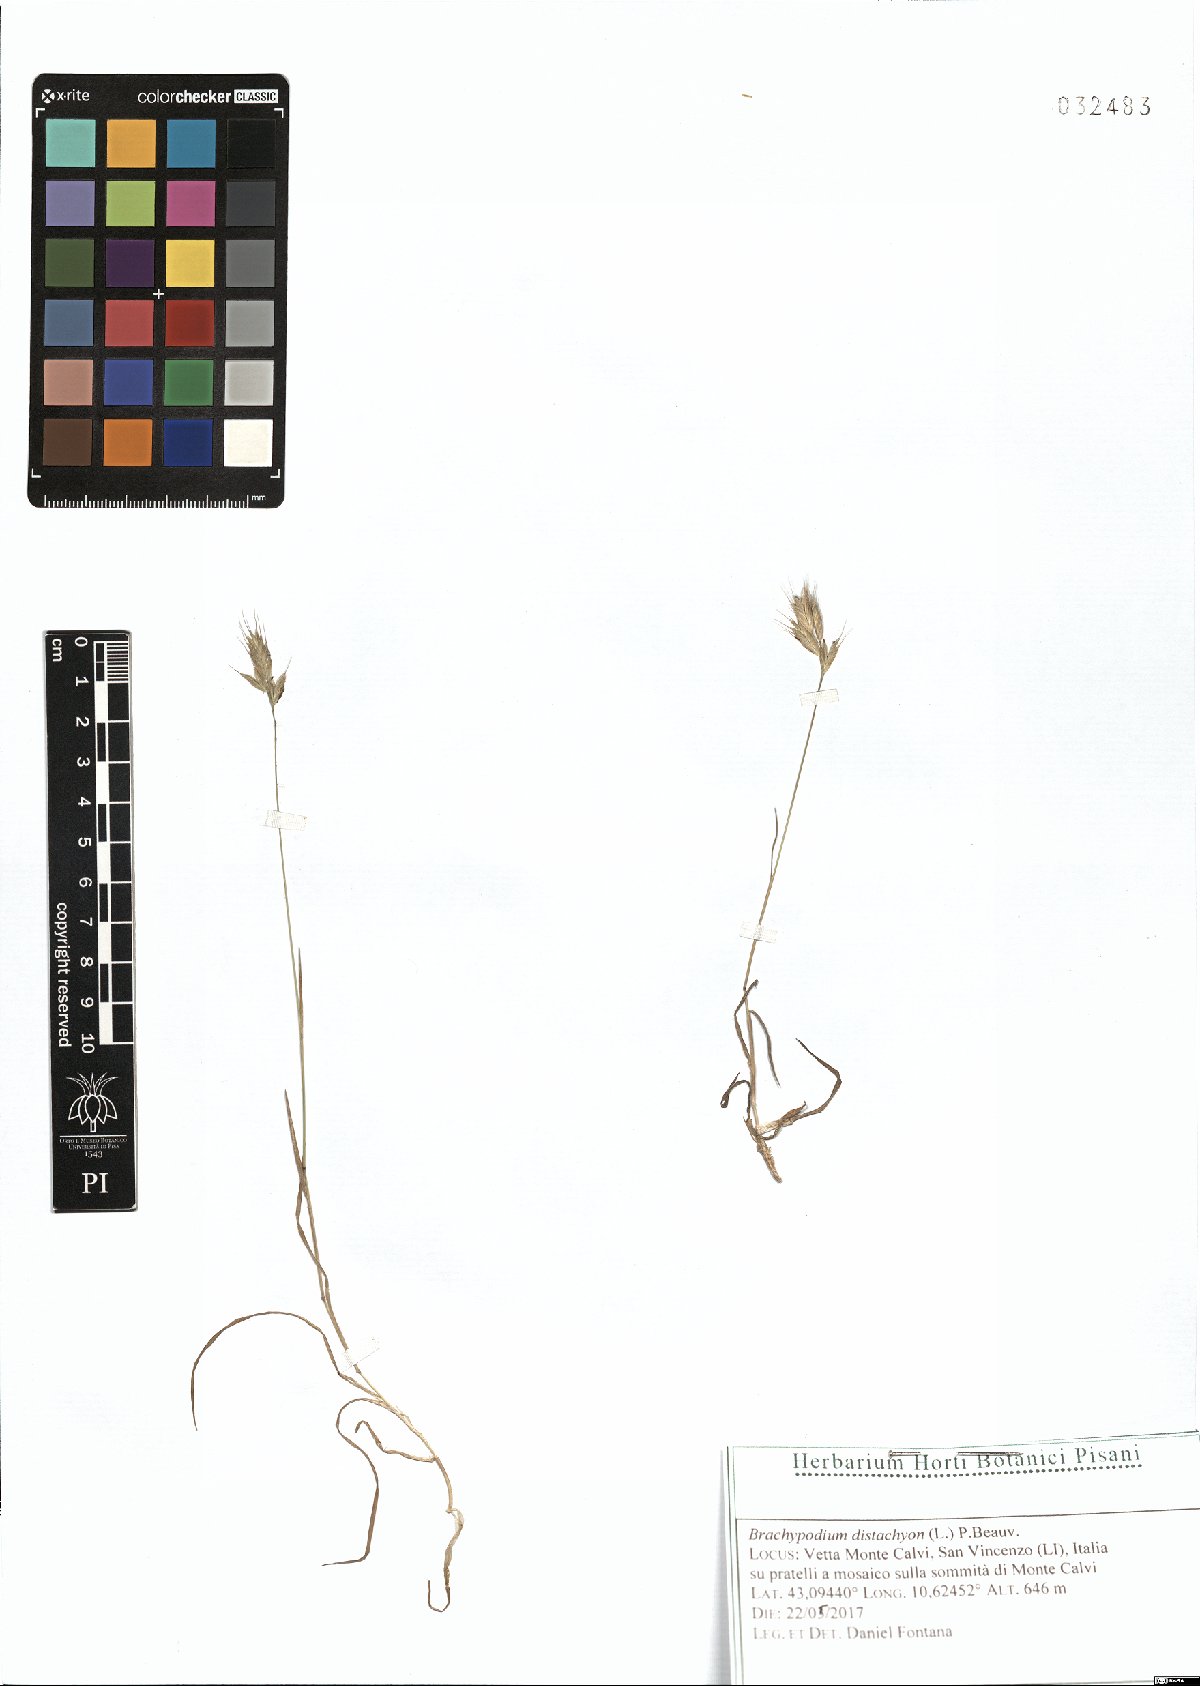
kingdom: Plantae
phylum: Tracheophyta
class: Liliopsida
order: Poales
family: Poaceae
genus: Brachypodium
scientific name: Brachypodium distachyon
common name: Stiff brome
